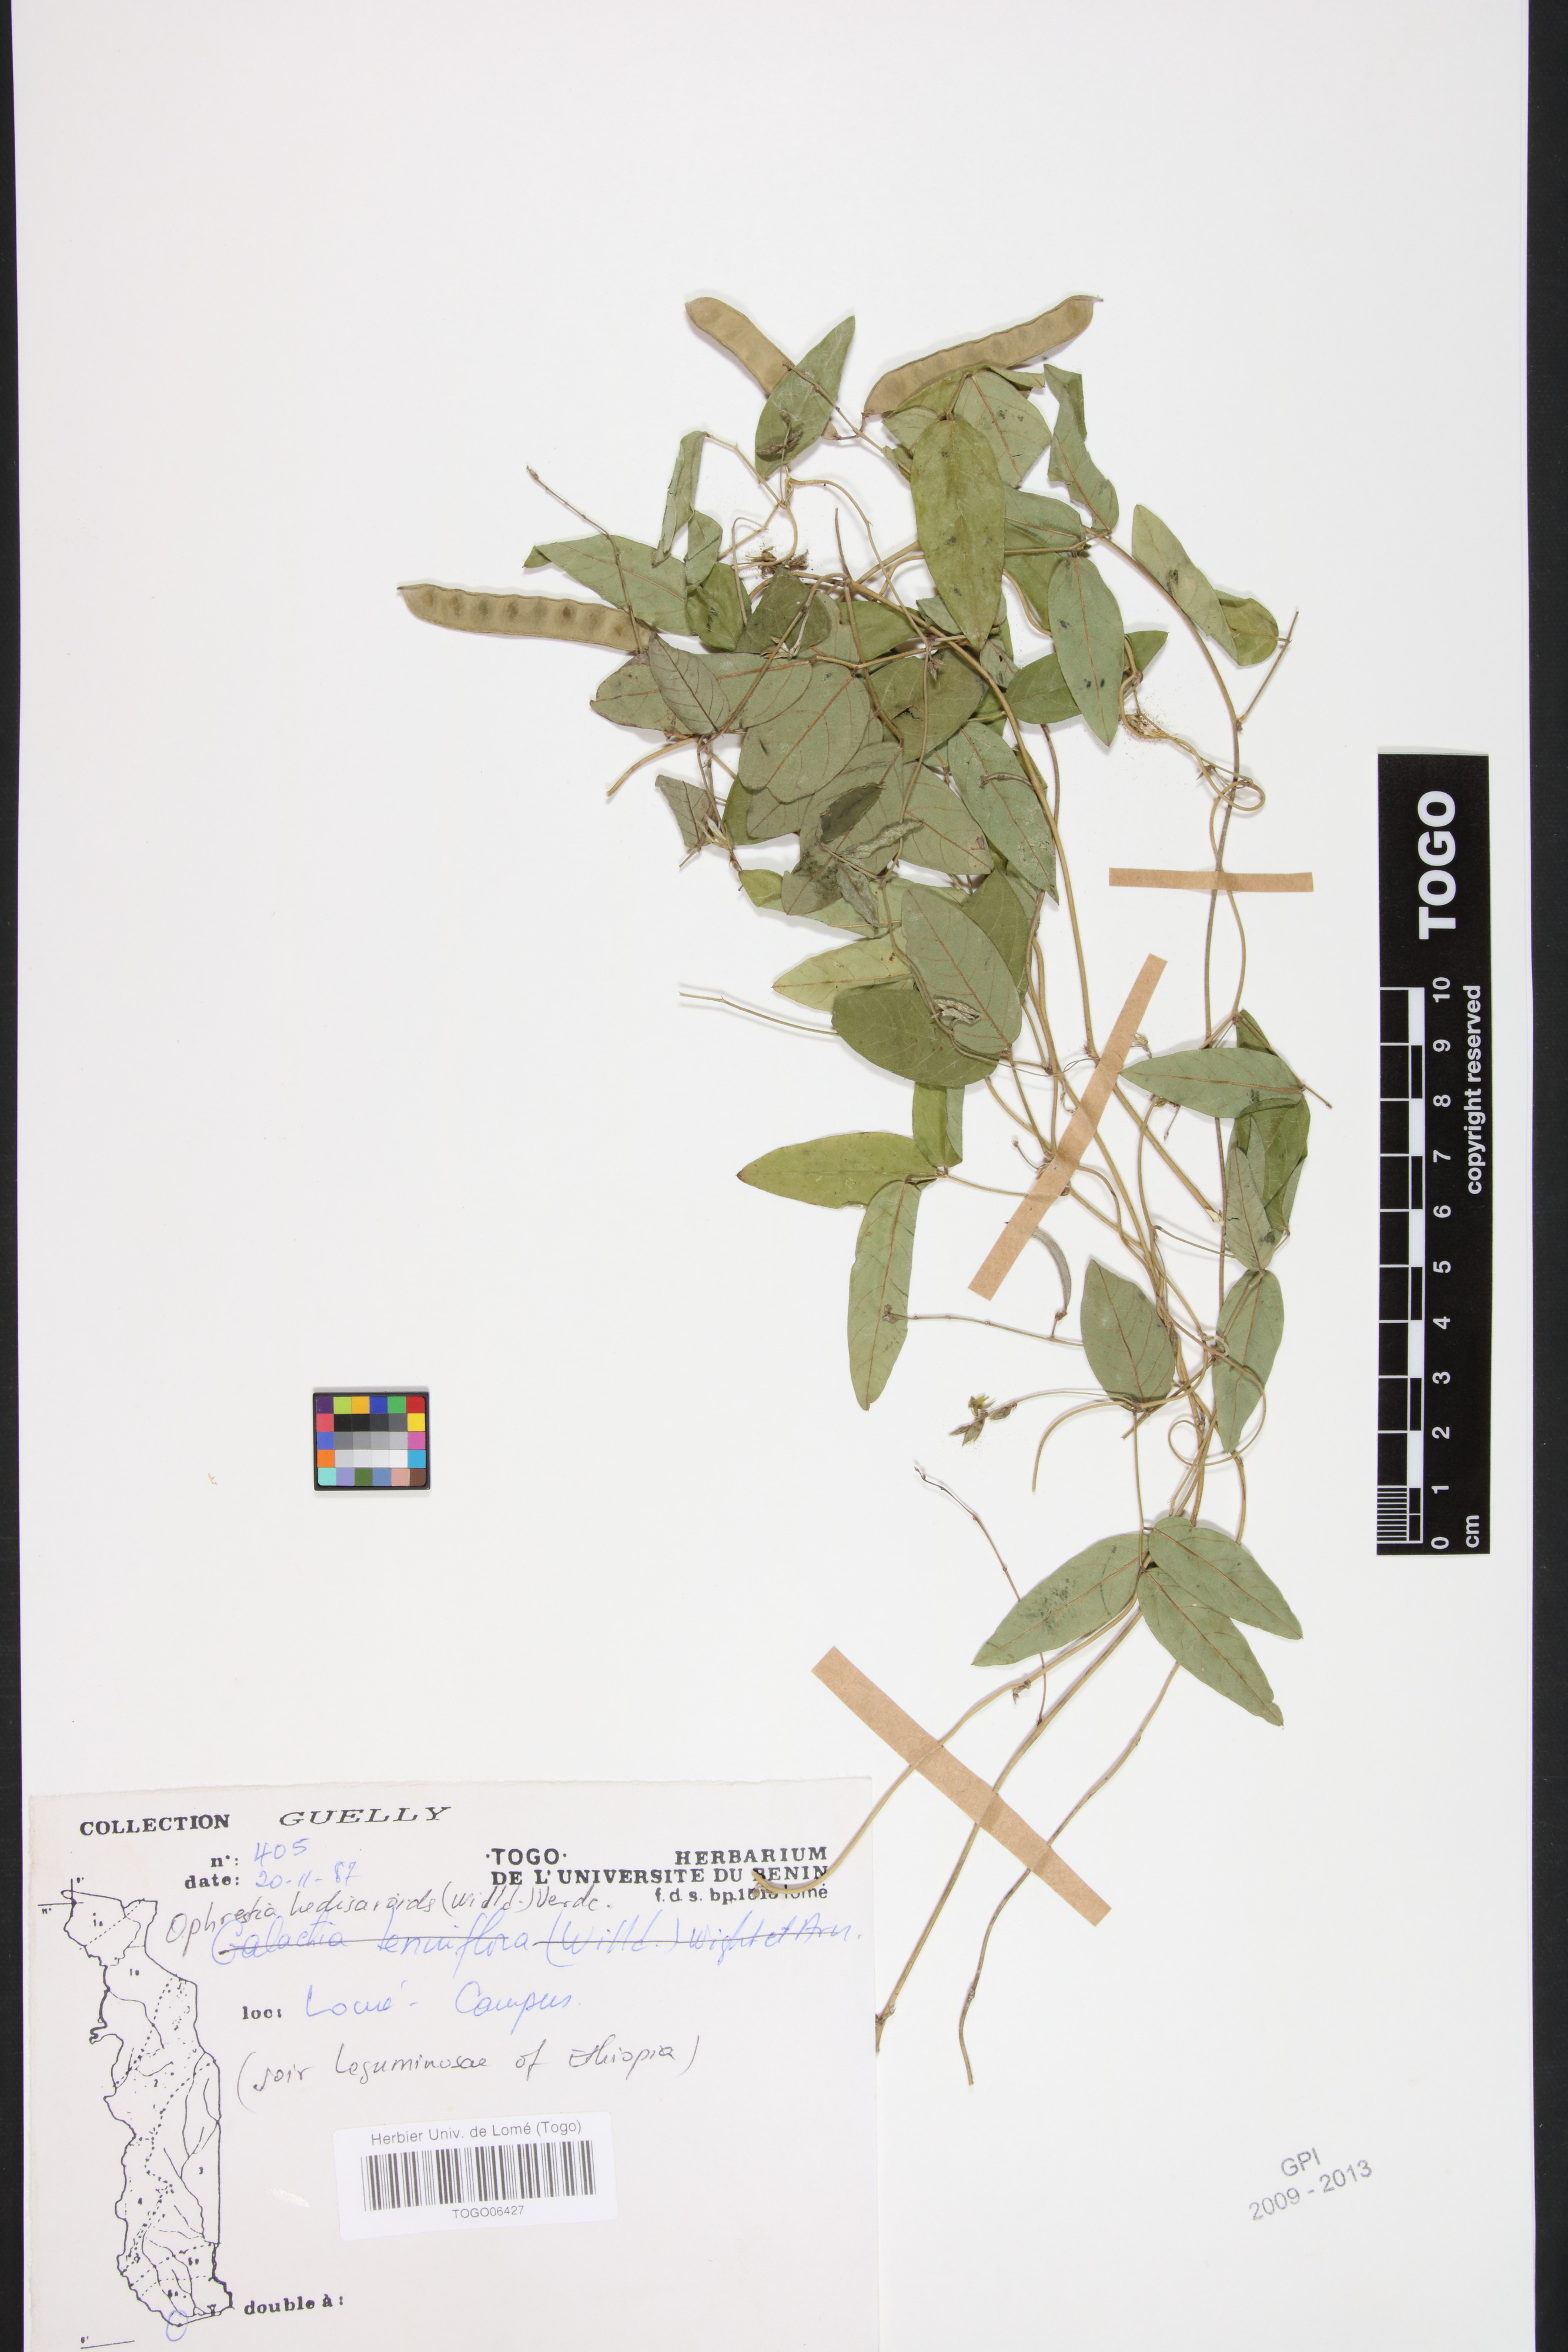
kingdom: Plantae
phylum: Tracheophyta
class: Magnoliopsida
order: Fabales
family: Fabaceae
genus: Ophrestia
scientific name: Ophrestia hedysaroides
